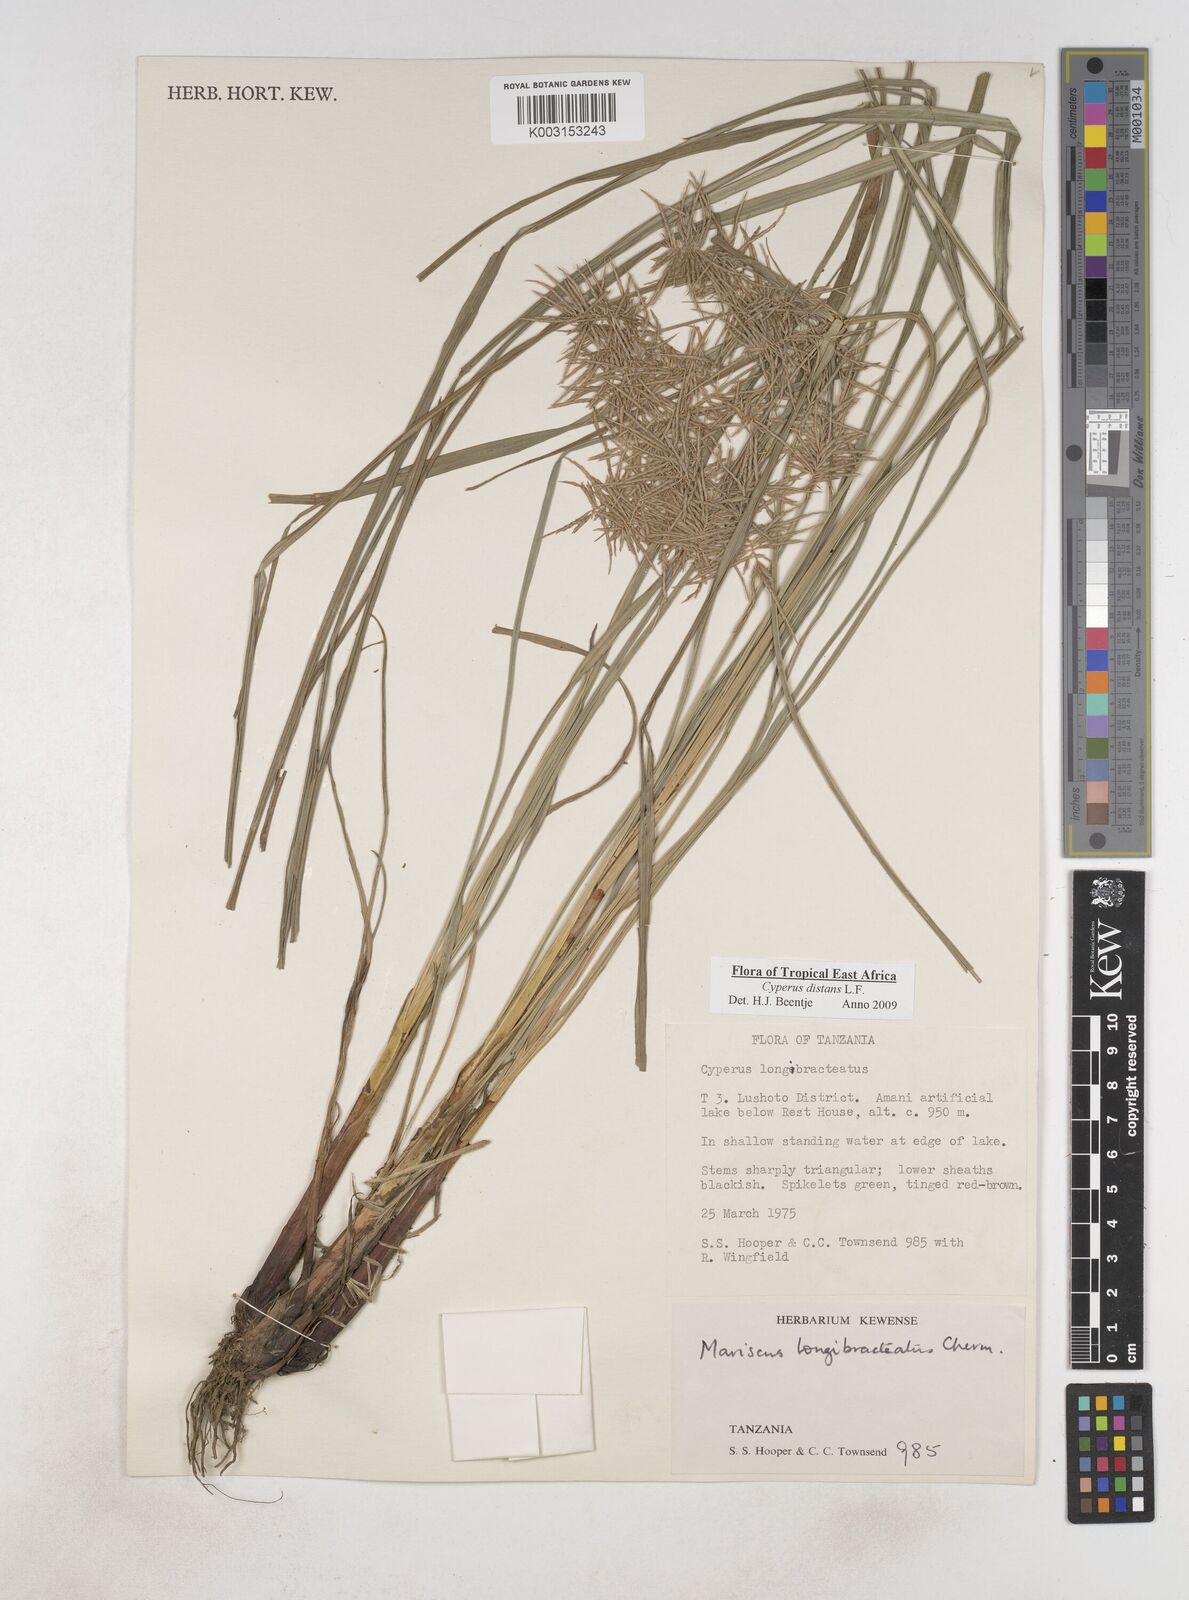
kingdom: Plantae
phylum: Tracheophyta
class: Liliopsida
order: Poales
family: Cyperaceae
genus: Cyperus
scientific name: Cyperus distans
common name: Slender cyperus
